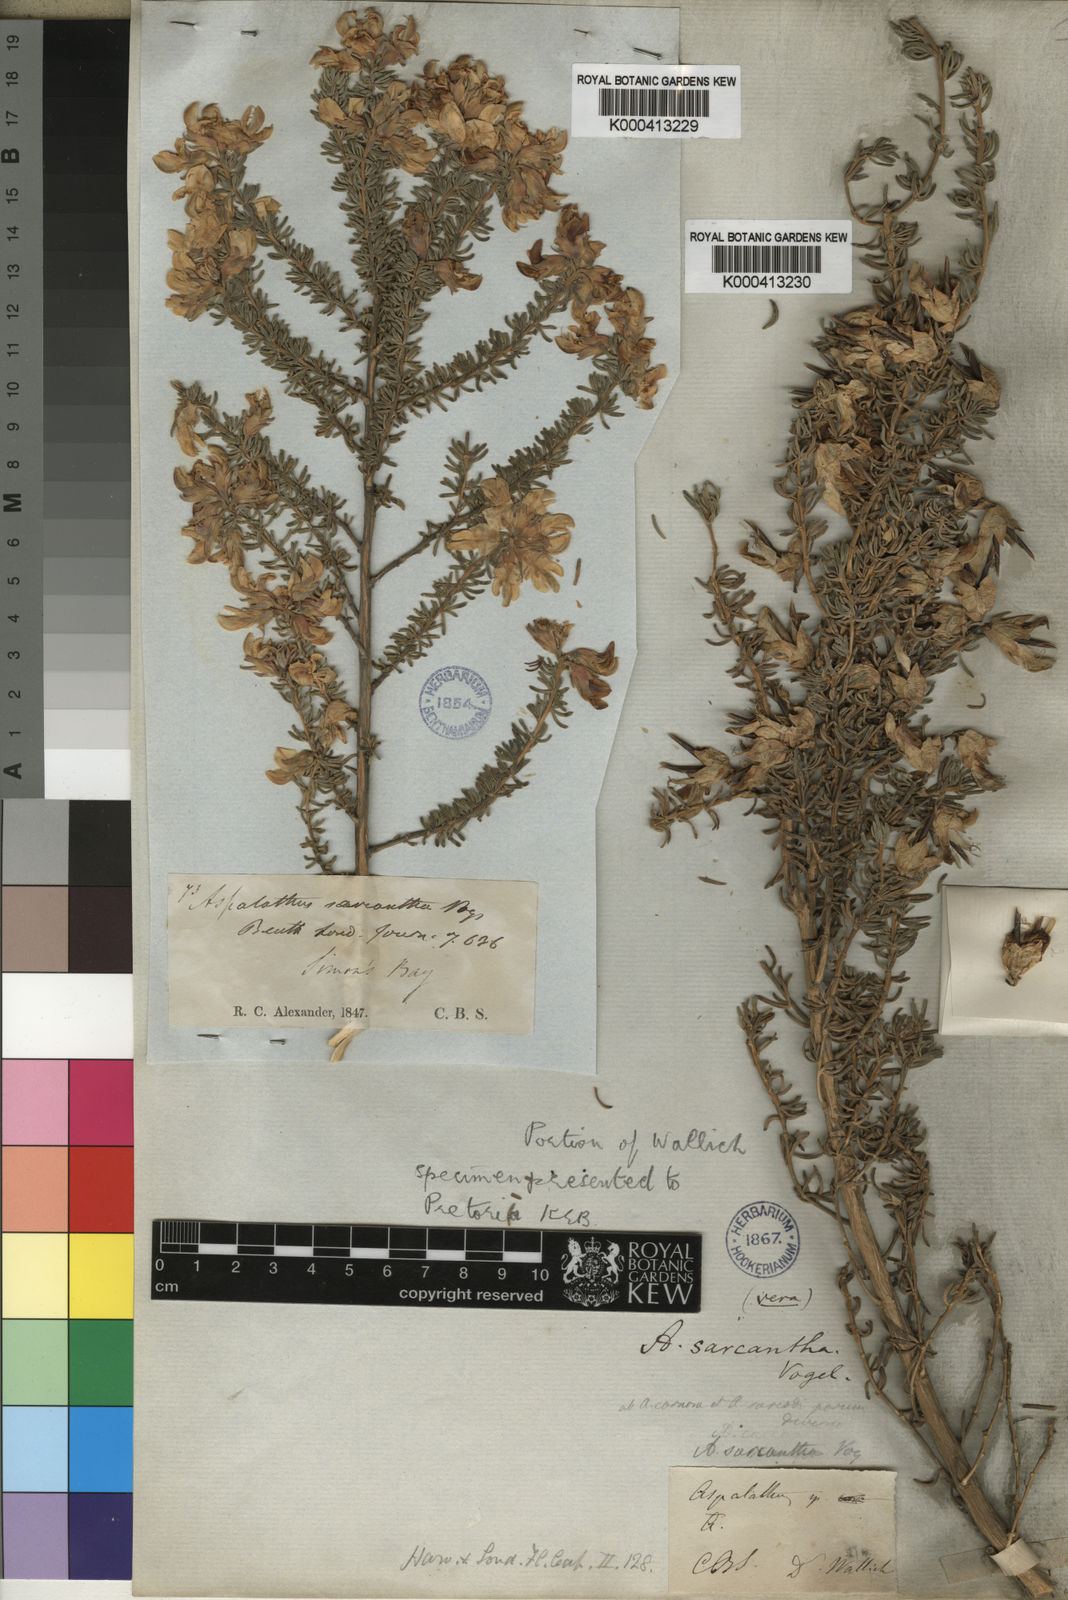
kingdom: Plantae
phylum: Tracheophyta
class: Magnoliopsida
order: Fabales
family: Fabaceae
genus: Aspalathus
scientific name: Aspalathus carnosa
